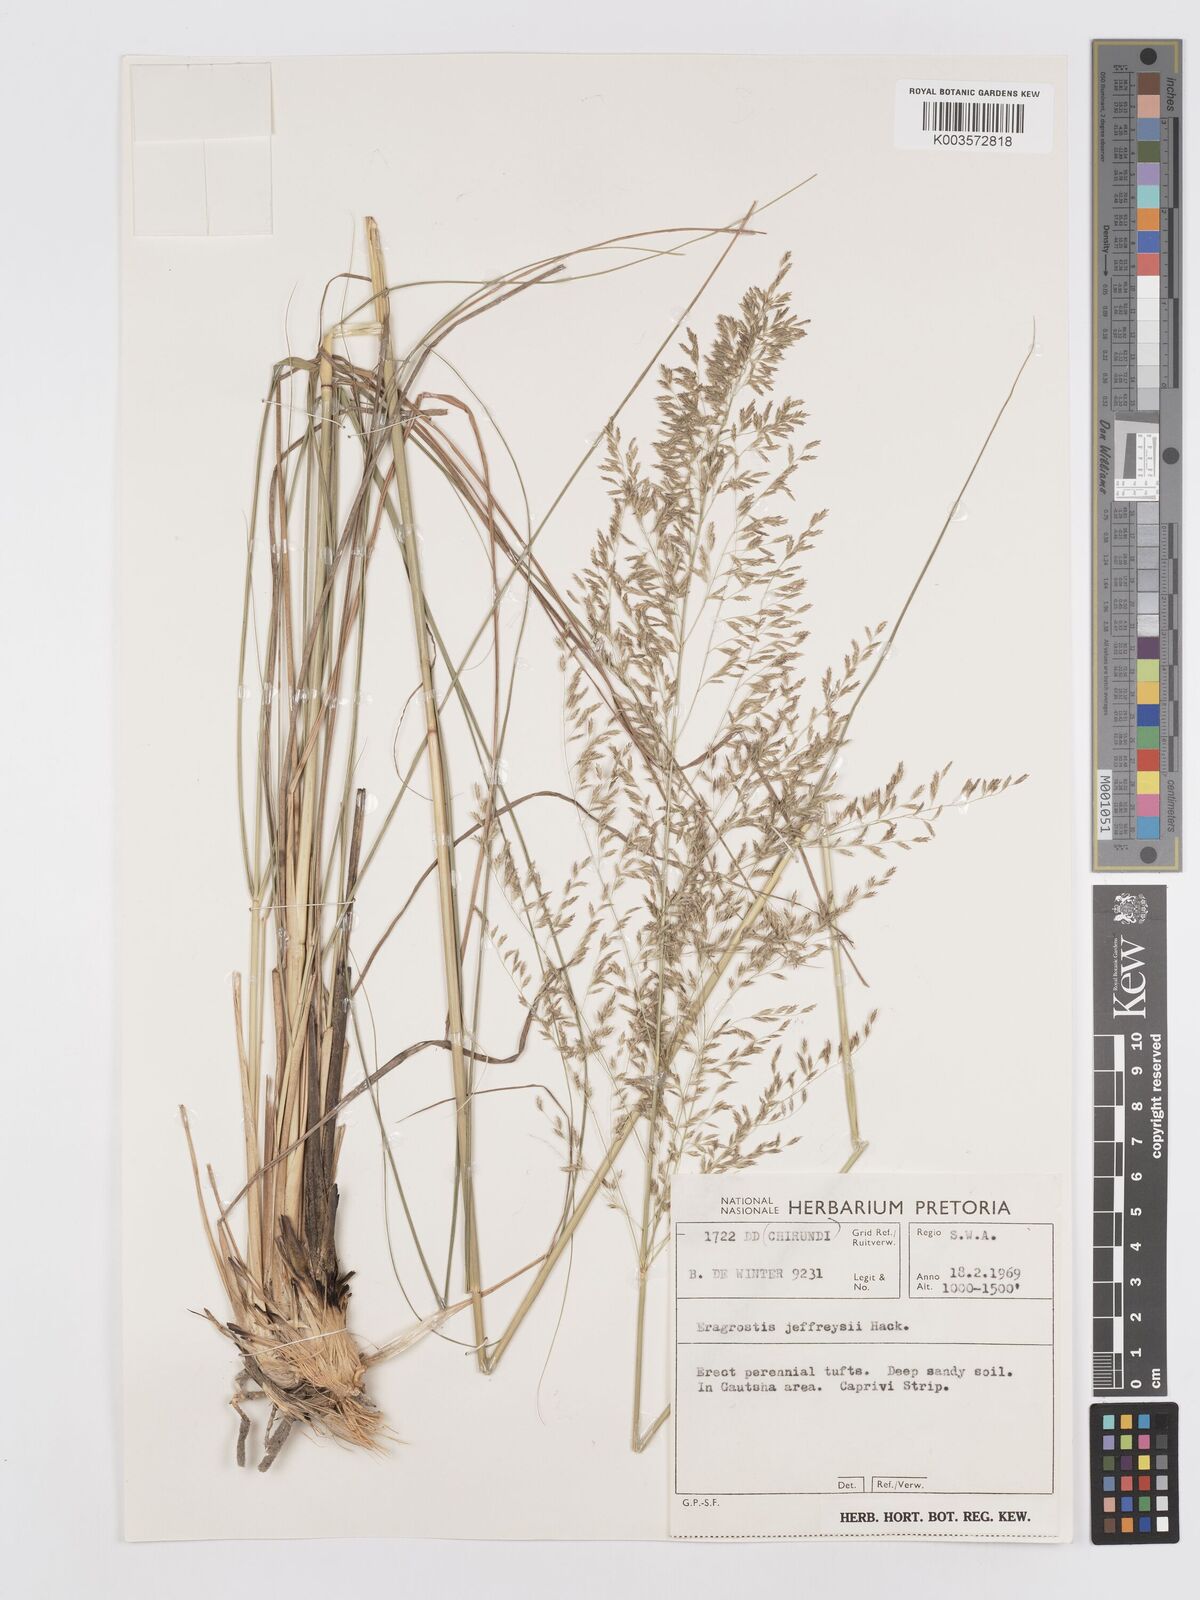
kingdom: Plantae
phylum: Tracheophyta
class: Liliopsida
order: Poales
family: Poaceae
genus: Eragrostis
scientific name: Eragrostis curvula
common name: African love-grass
